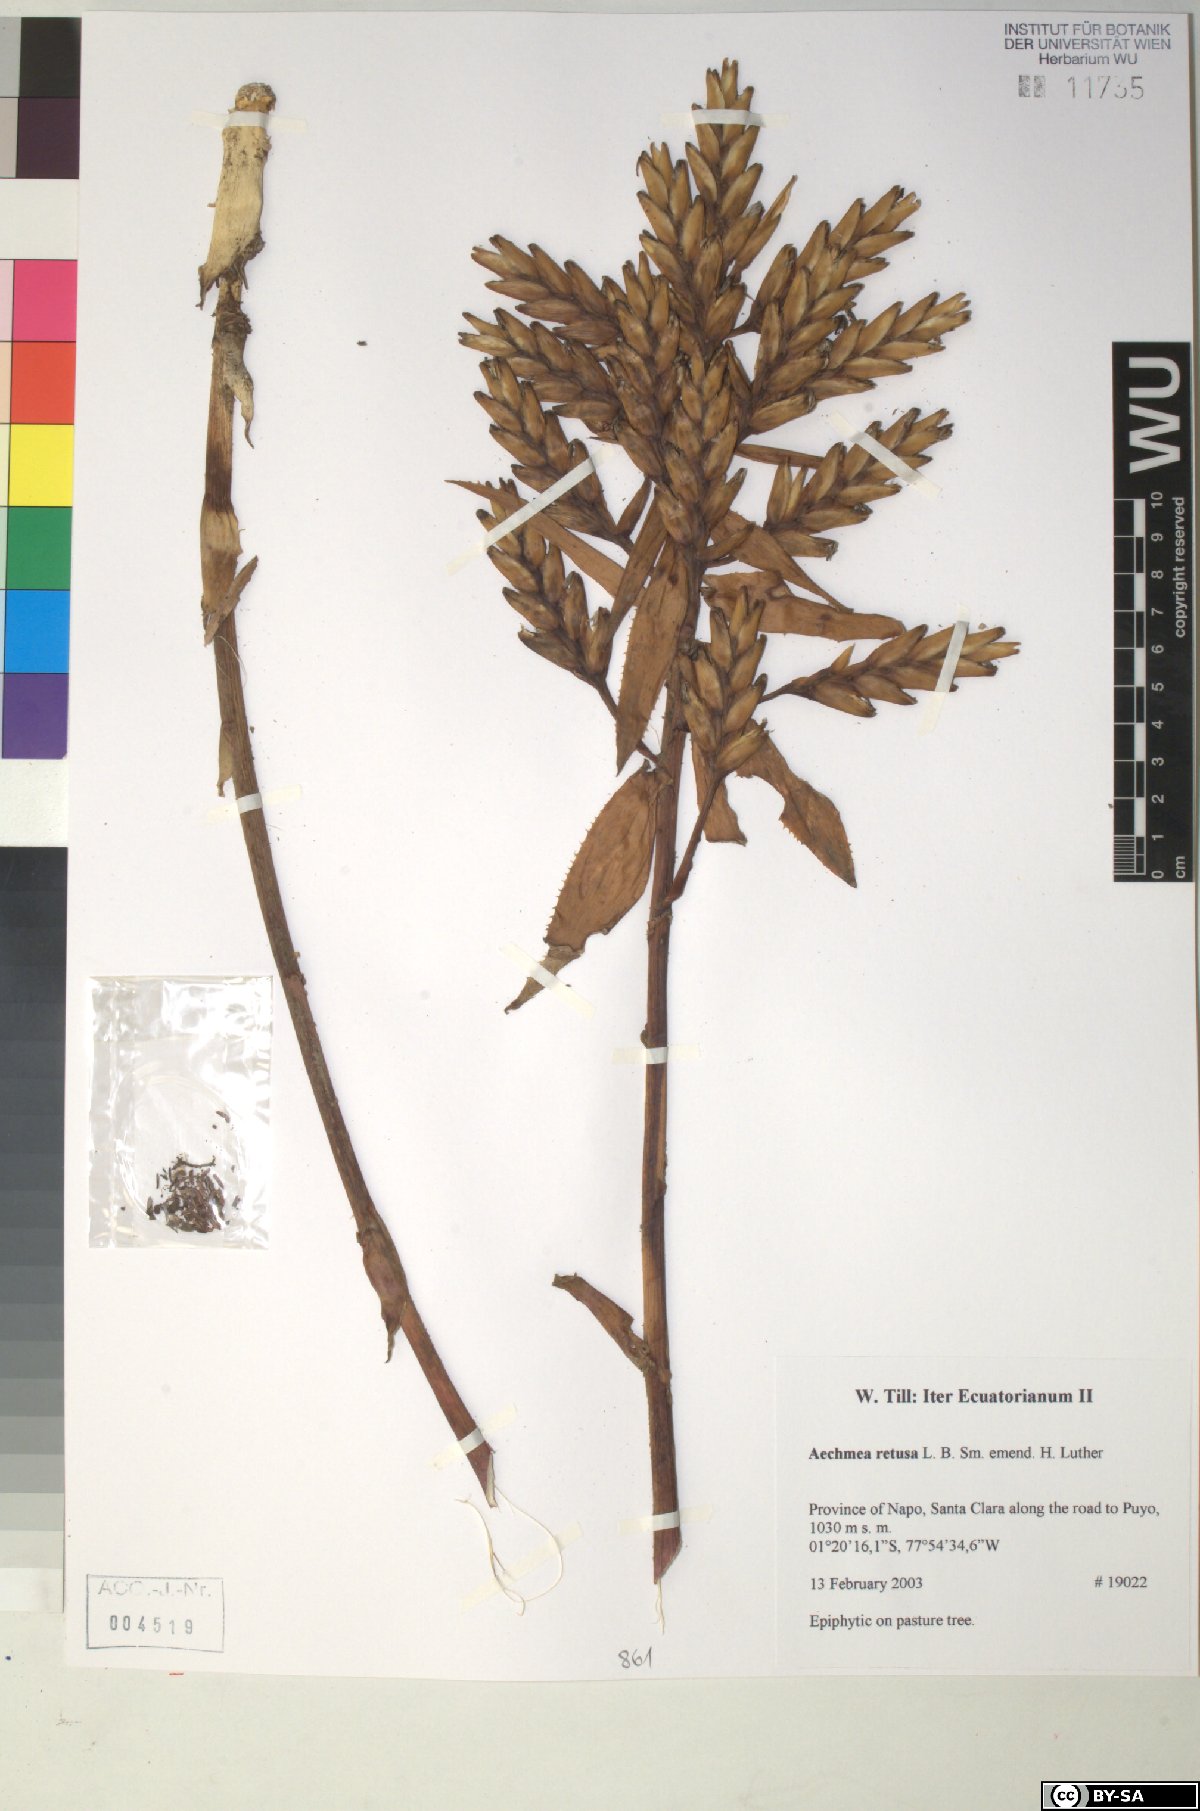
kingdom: Plantae
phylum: Tracheophyta
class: Liliopsida
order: Poales
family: Bromeliaceae
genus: Aechmea
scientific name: Aechmea
